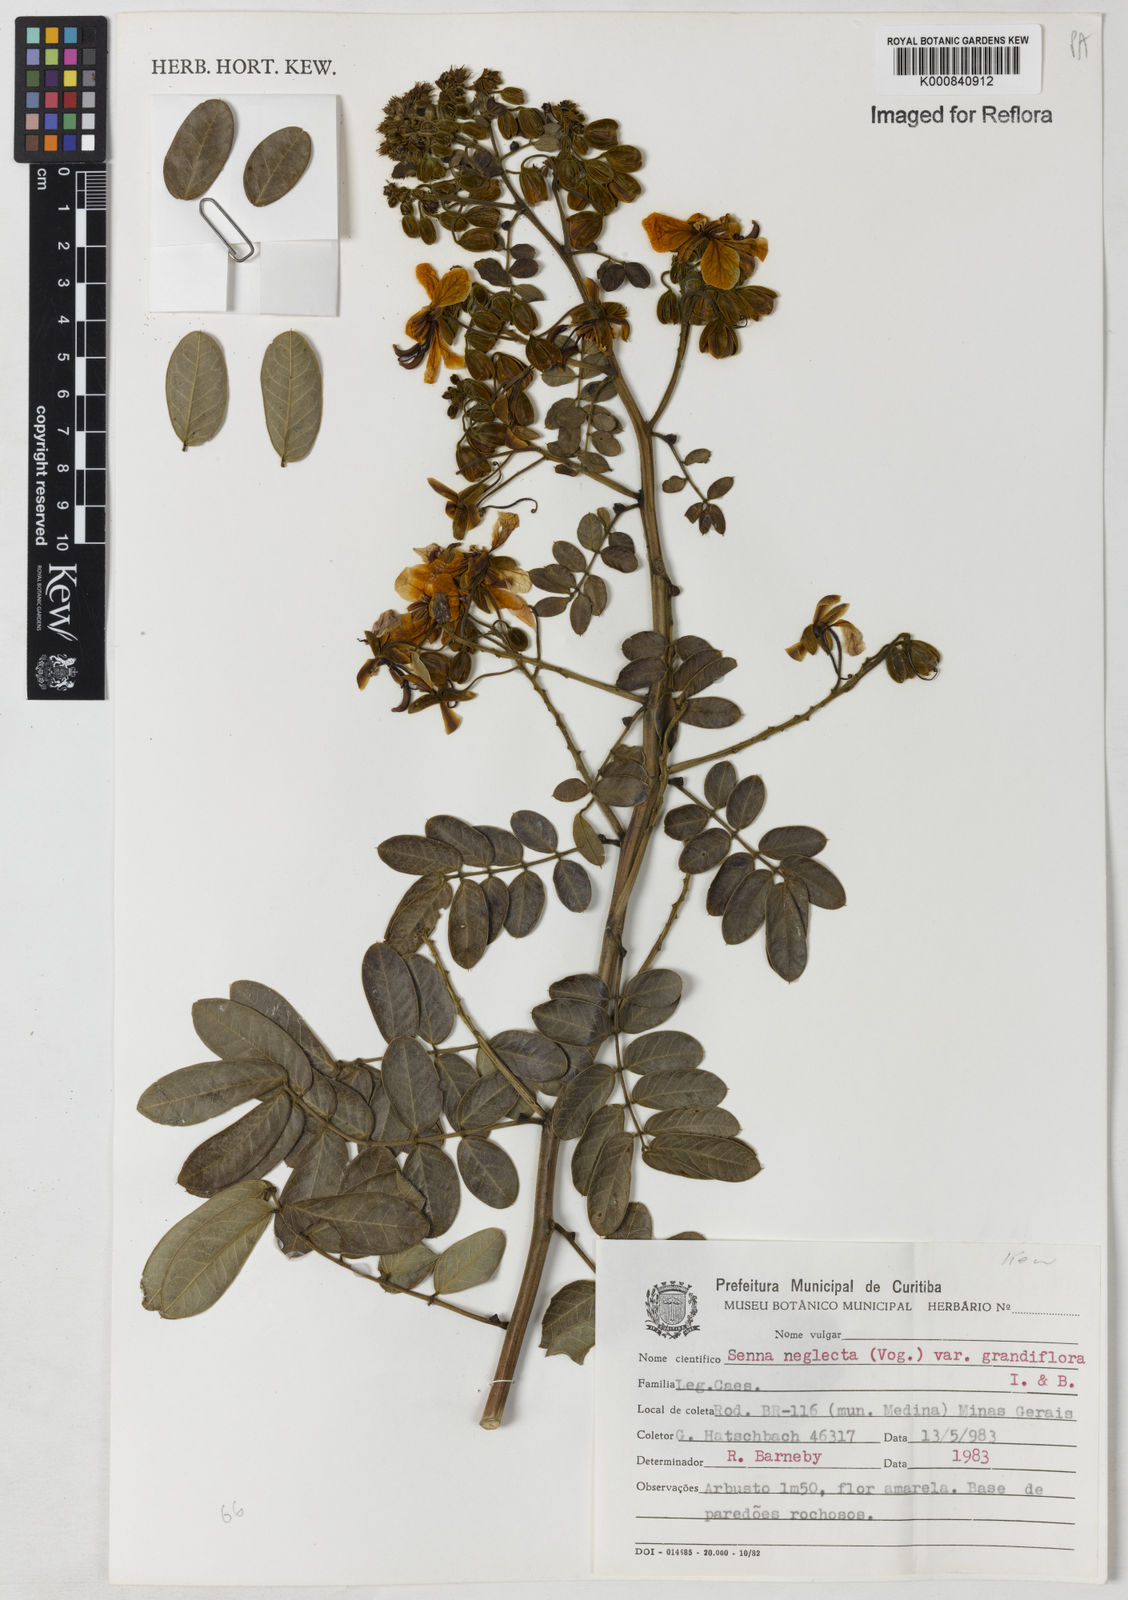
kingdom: Plantae
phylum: Tracheophyta
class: Magnoliopsida
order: Fabales
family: Fabaceae
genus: Senna
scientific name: Senna neglecta
